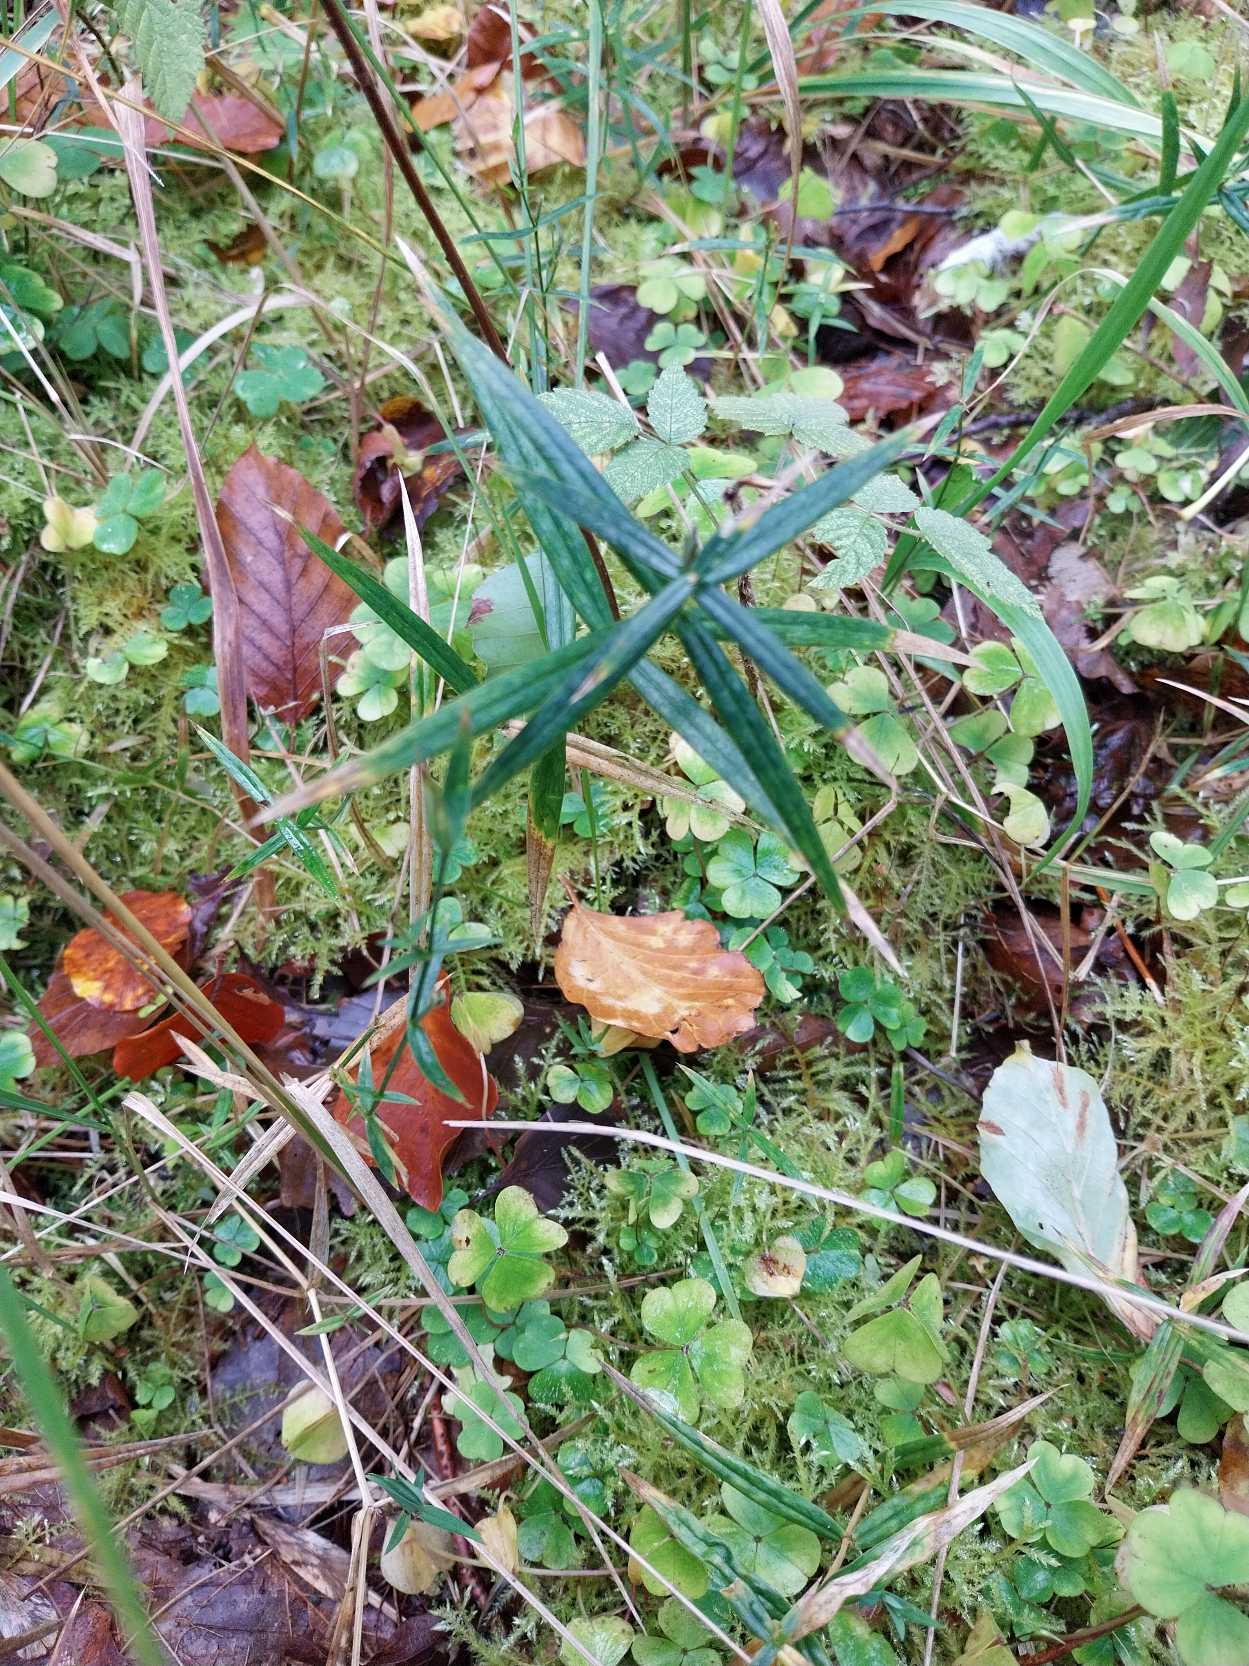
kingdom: Plantae
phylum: Tracheophyta
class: Magnoliopsida
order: Caryophyllales
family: Caryophyllaceae
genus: Rabelera
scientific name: Rabelera holostea
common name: Stor fladstjerne
